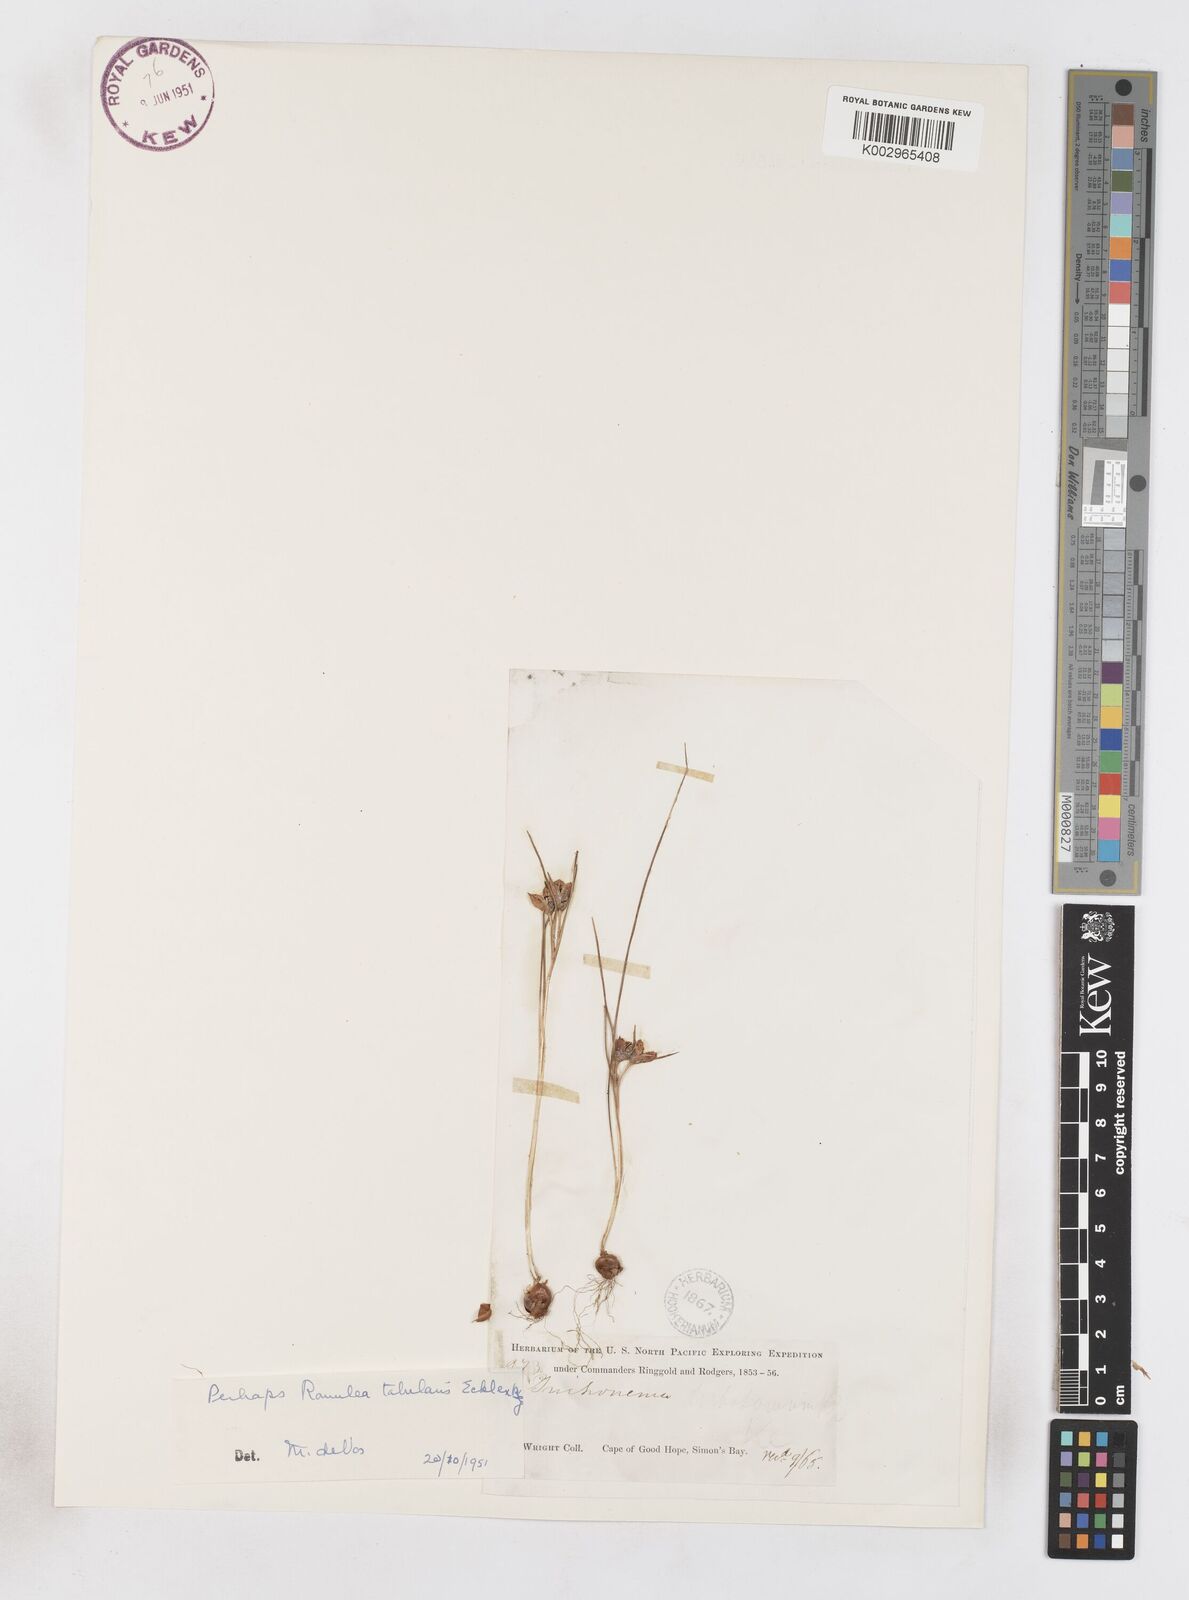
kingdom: Plantae
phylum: Tracheophyta
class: Liliopsida
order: Asparagales
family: Iridaceae
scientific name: Iridaceae
